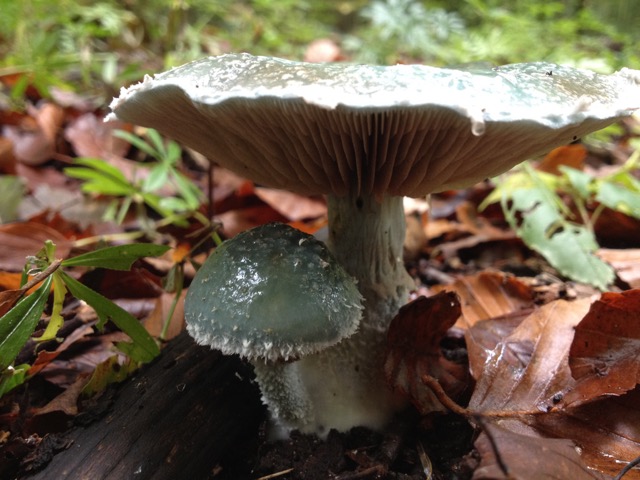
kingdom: Fungi
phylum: Basidiomycota
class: Agaricomycetes
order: Agaricales
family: Strophariaceae
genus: Stropharia
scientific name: Stropharia cyanea
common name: blågrøn bredblad
